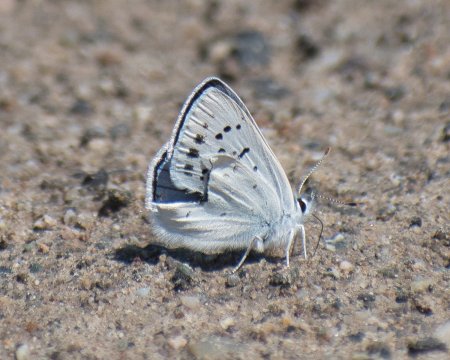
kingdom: Animalia
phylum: Arthropoda
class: Insecta
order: Lepidoptera
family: Lycaenidae
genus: Lycaena
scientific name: Lycaena heteronea
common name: Blue Copper
